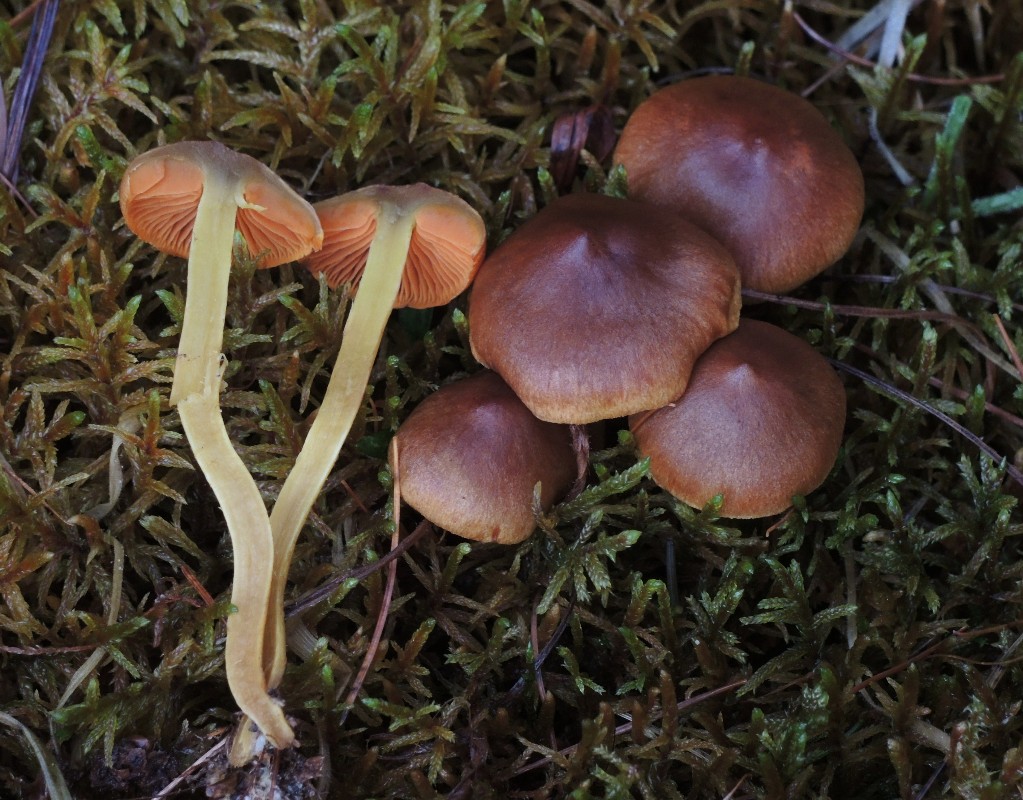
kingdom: Fungi
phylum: Basidiomycota
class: Agaricomycetes
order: Agaricales
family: Cortinariaceae
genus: Cortinarius
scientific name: Cortinarius malicorius
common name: grønkødet slørhat
